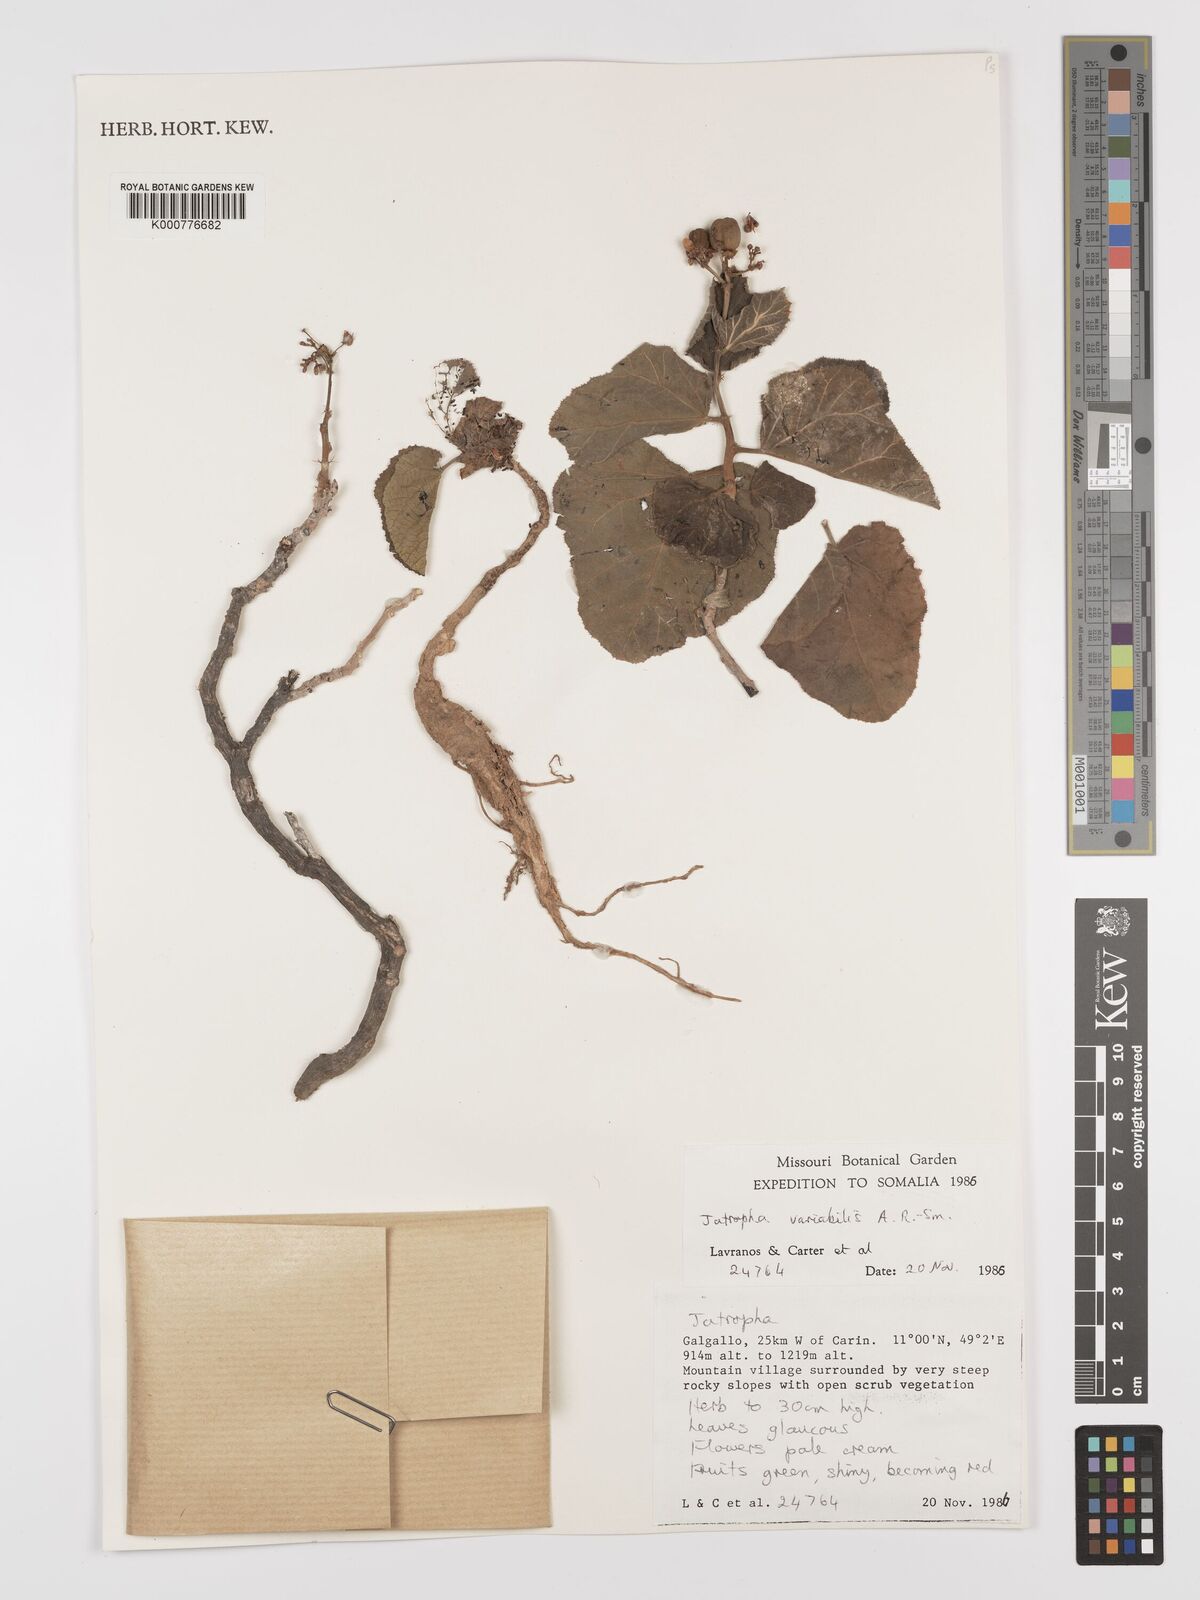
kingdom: Plantae
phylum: Tracheophyta
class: Magnoliopsida
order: Malpighiales
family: Euphorbiaceae
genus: Jatropha
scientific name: Jatropha variabilis
